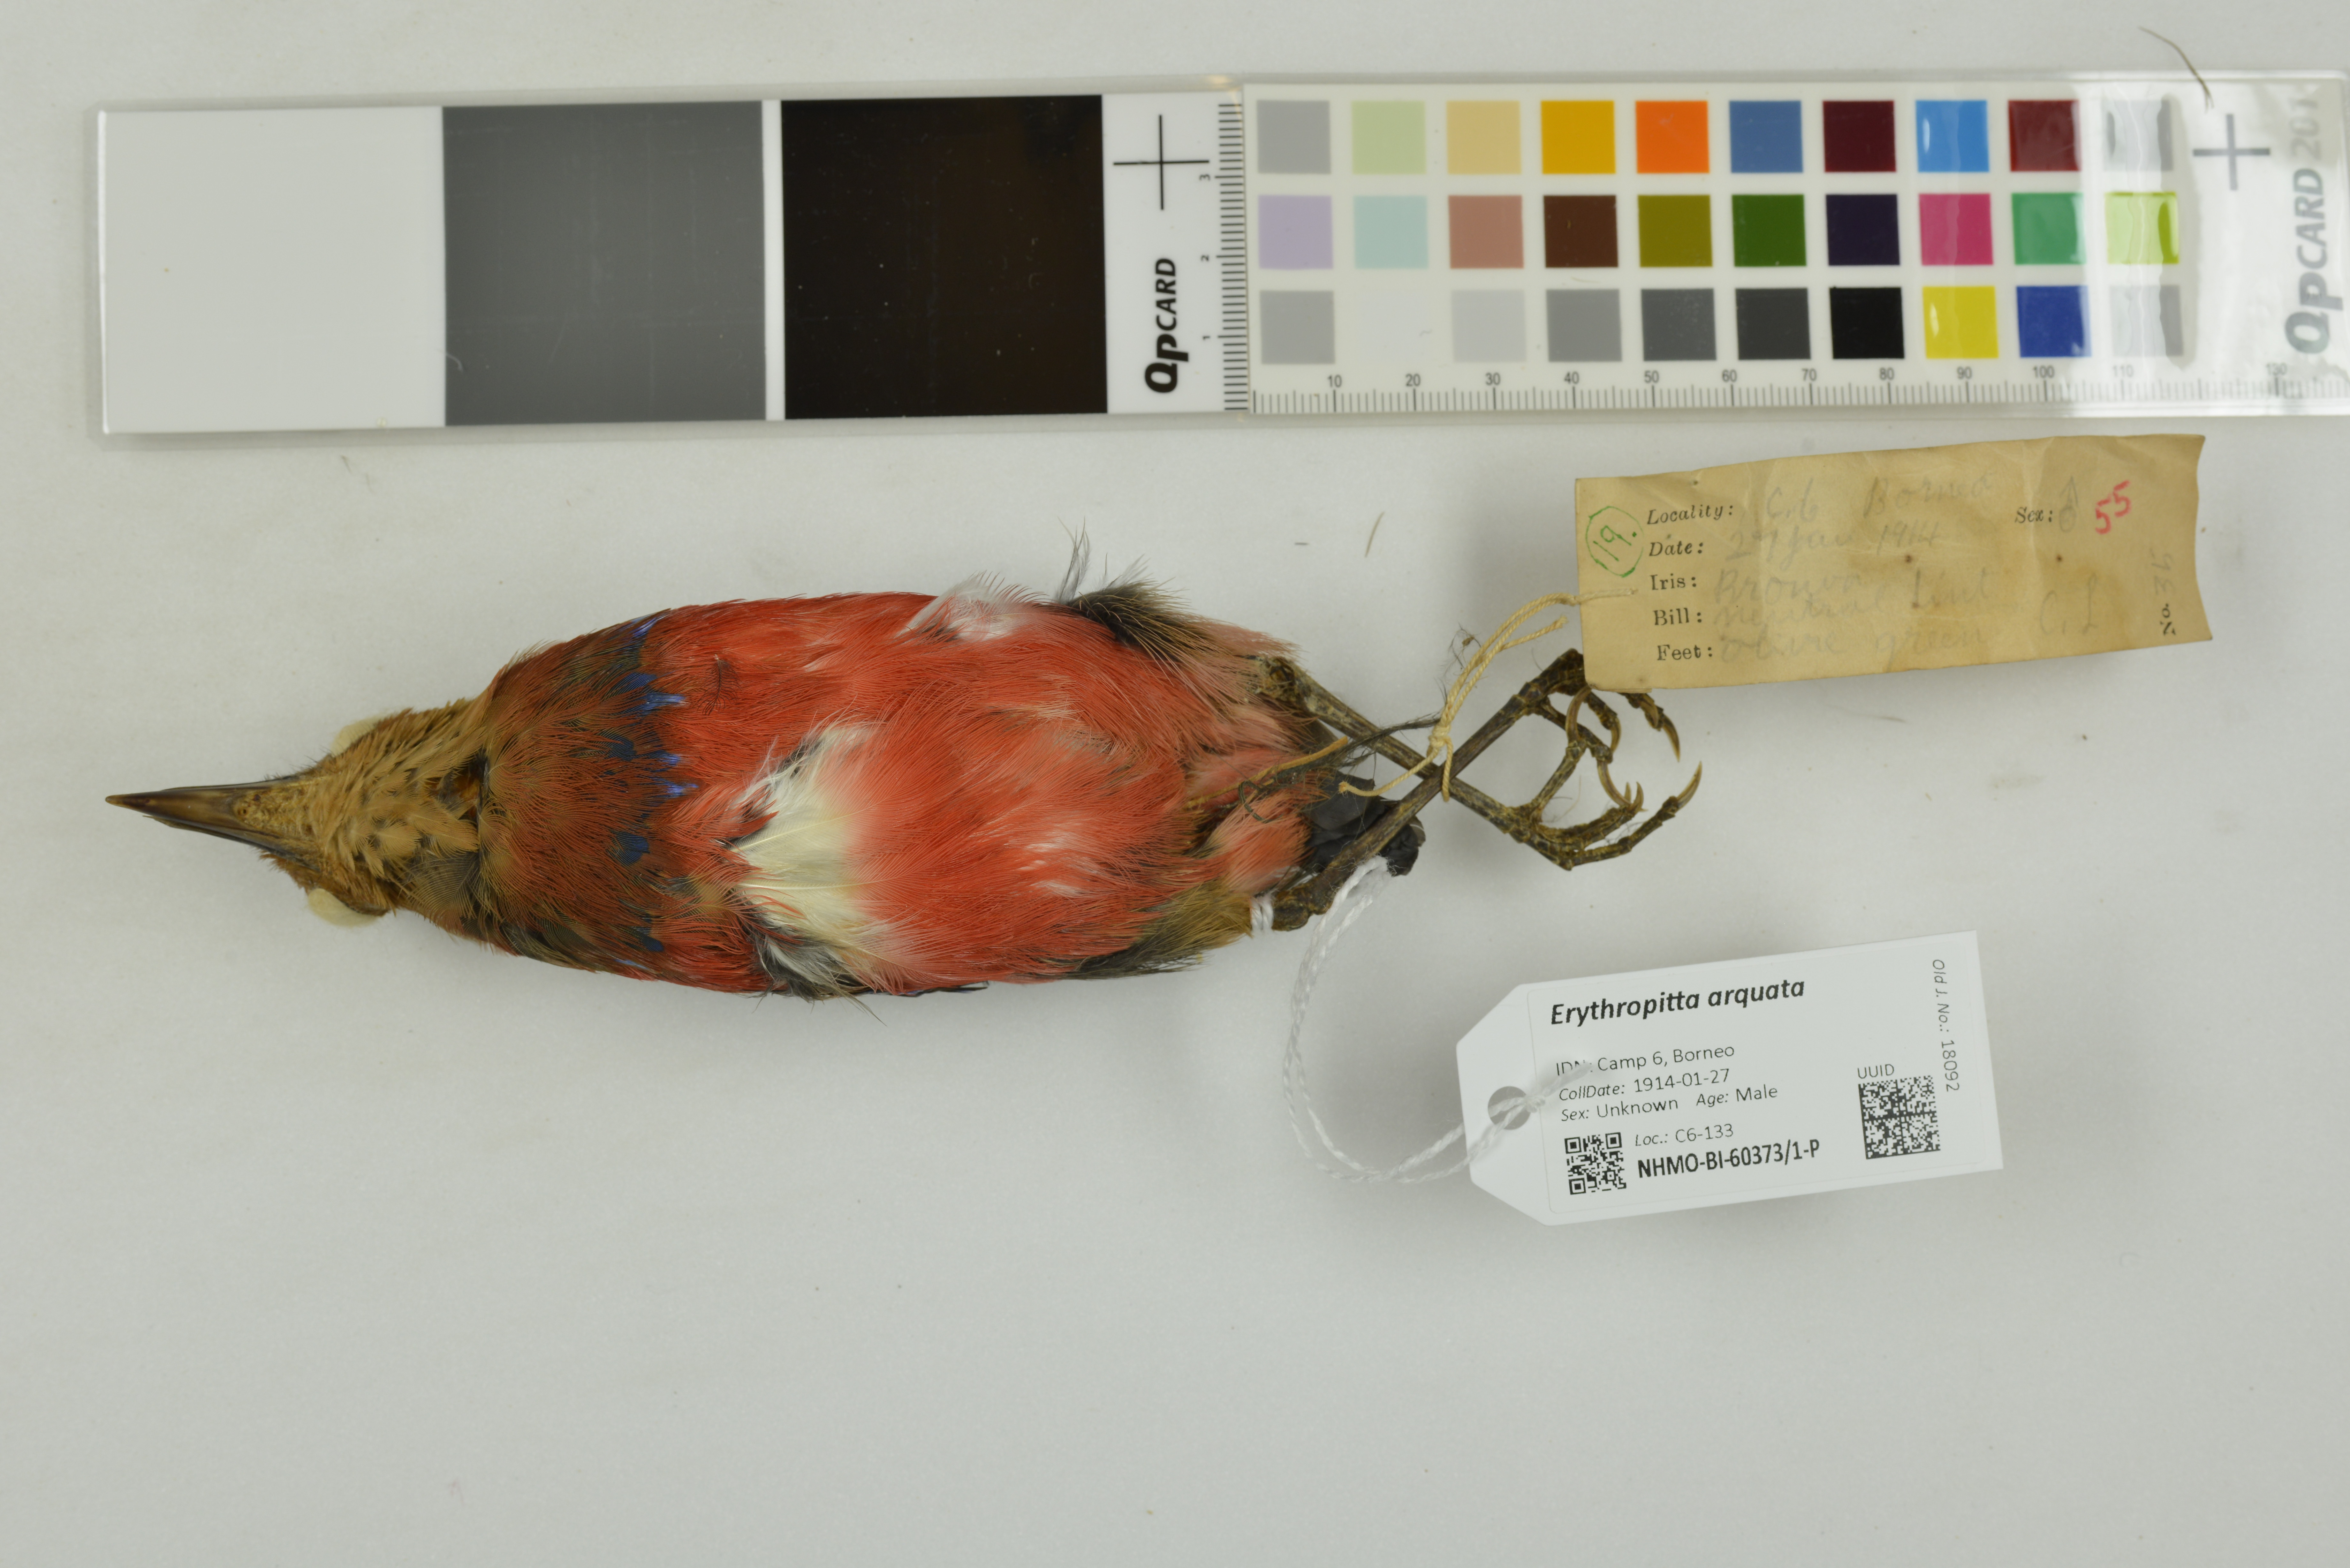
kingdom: Animalia
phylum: Chordata
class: Aves
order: Passeriformes
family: Pittidae
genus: Pitta
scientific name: Pitta arquata
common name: Blue-banded pitta
